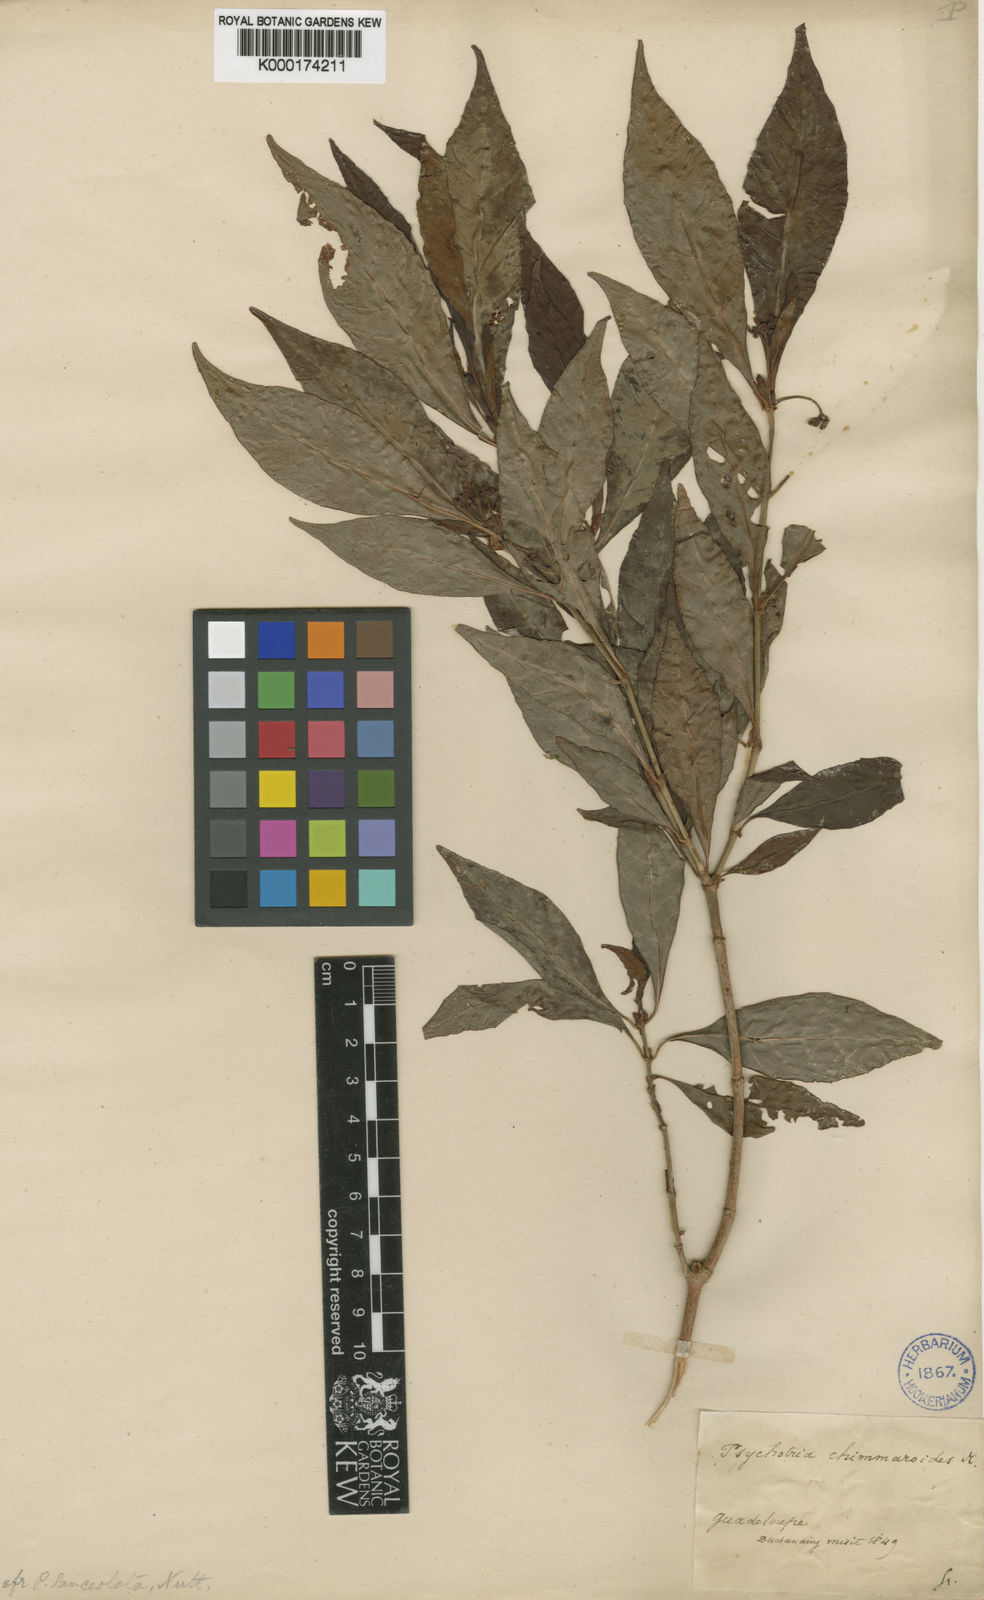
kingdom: Plantae
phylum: Tracheophyta
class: Magnoliopsida
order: Gentianales
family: Rubiaceae
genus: Psychotria
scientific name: Psychotria nervosa
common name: Bastard cankerberry
